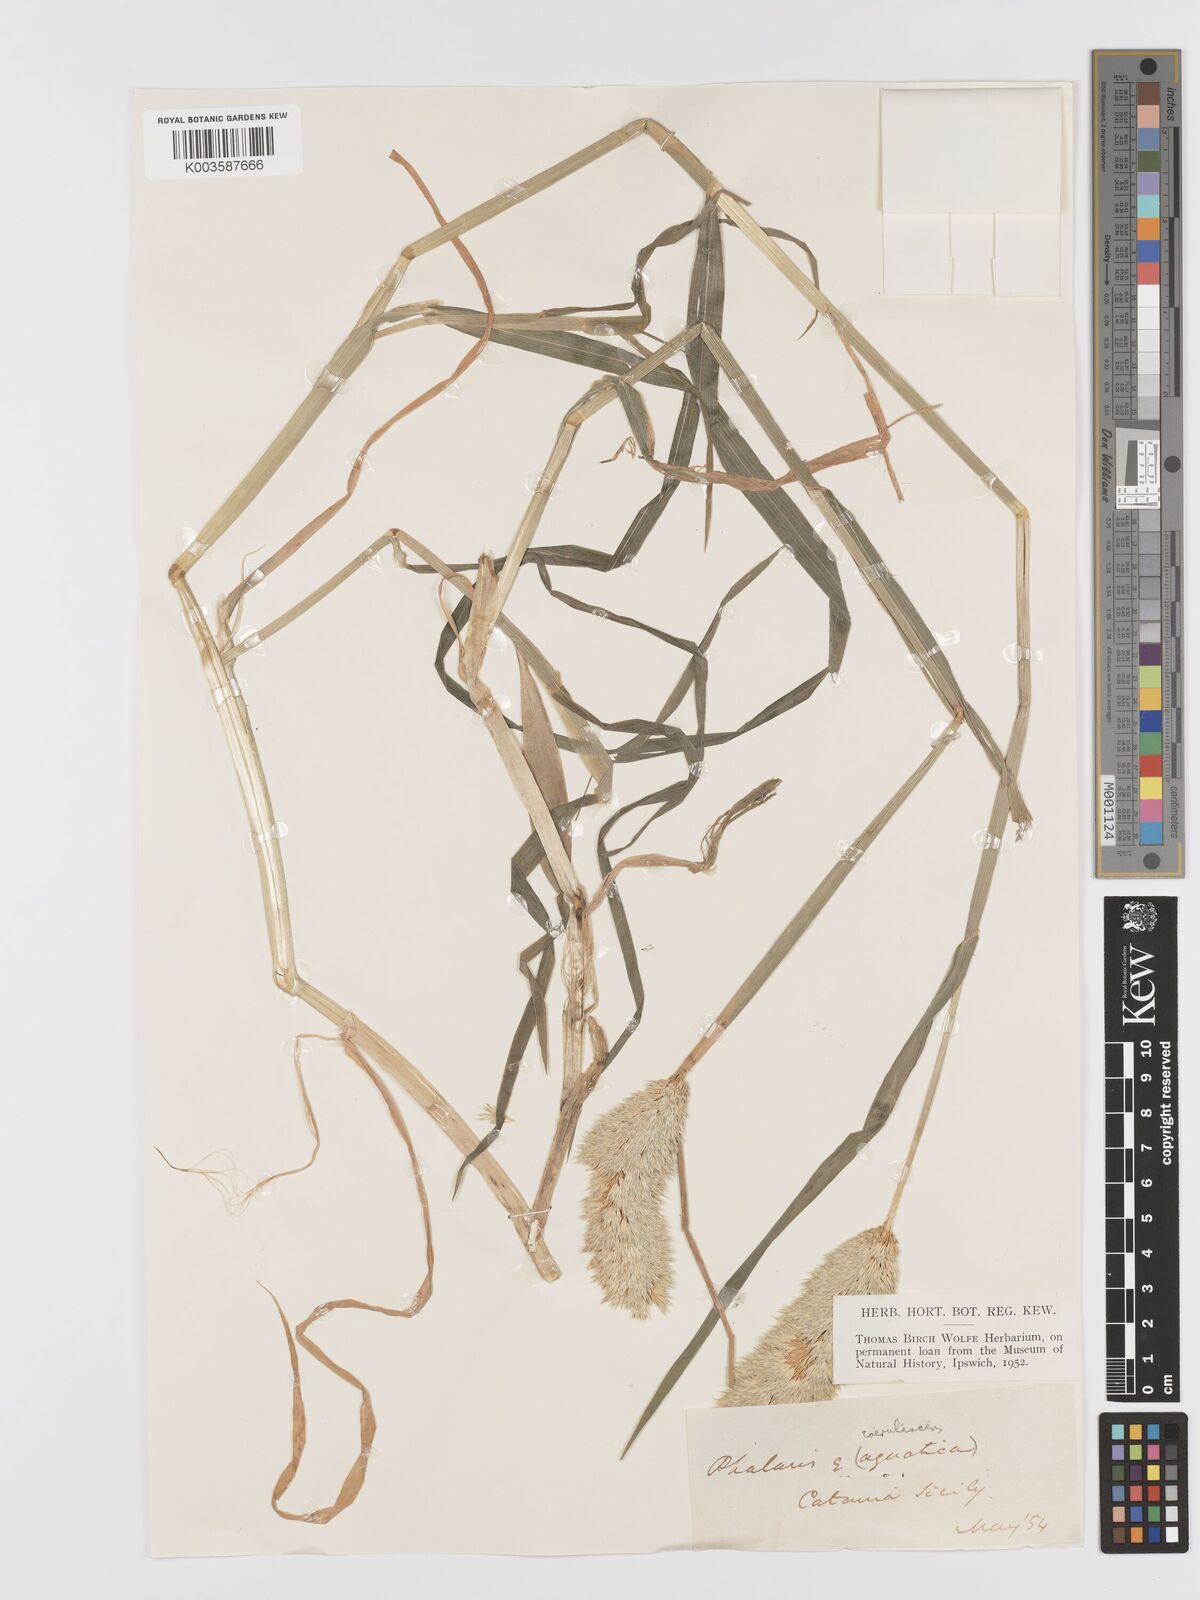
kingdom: Plantae
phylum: Tracheophyta
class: Liliopsida
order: Poales
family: Poaceae
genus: Phalaris
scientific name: Phalaris coerulescens
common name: Sunolgrass
